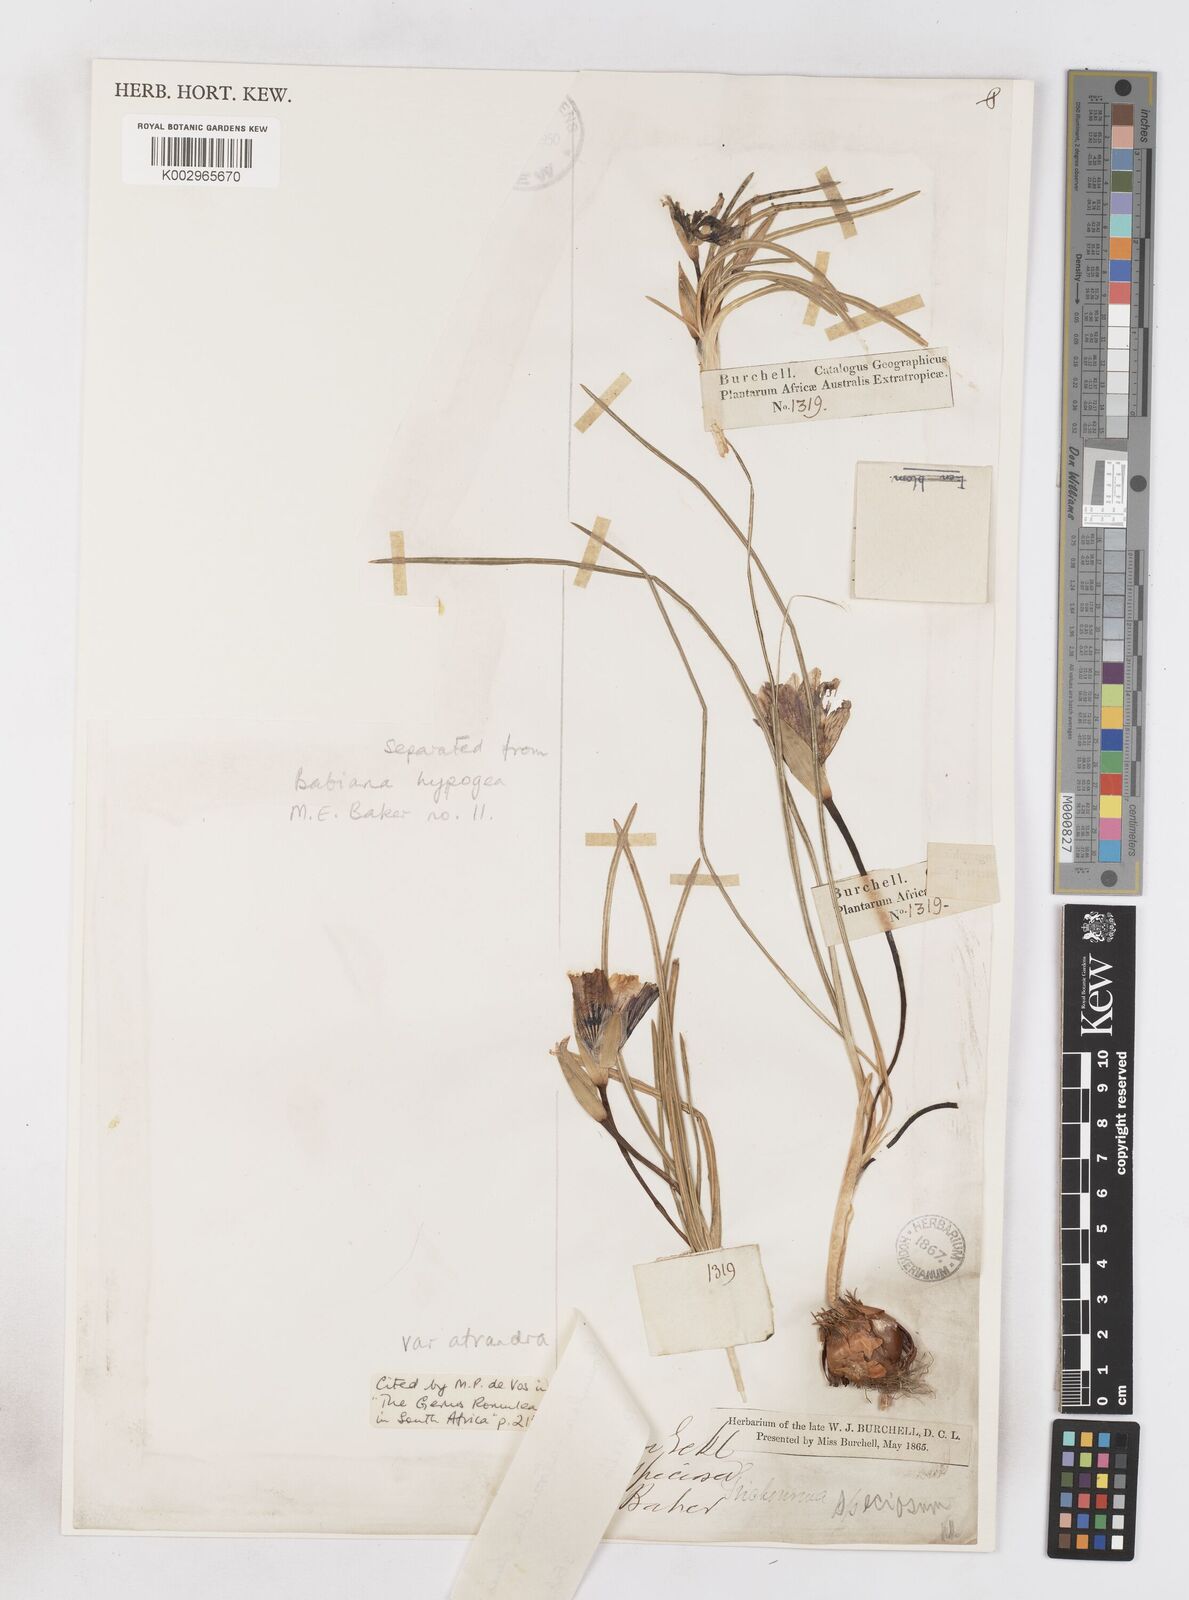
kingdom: Plantae
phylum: Tracheophyta
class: Liliopsida
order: Asparagales
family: Iridaceae
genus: Romulea
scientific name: Romulea atrandra
